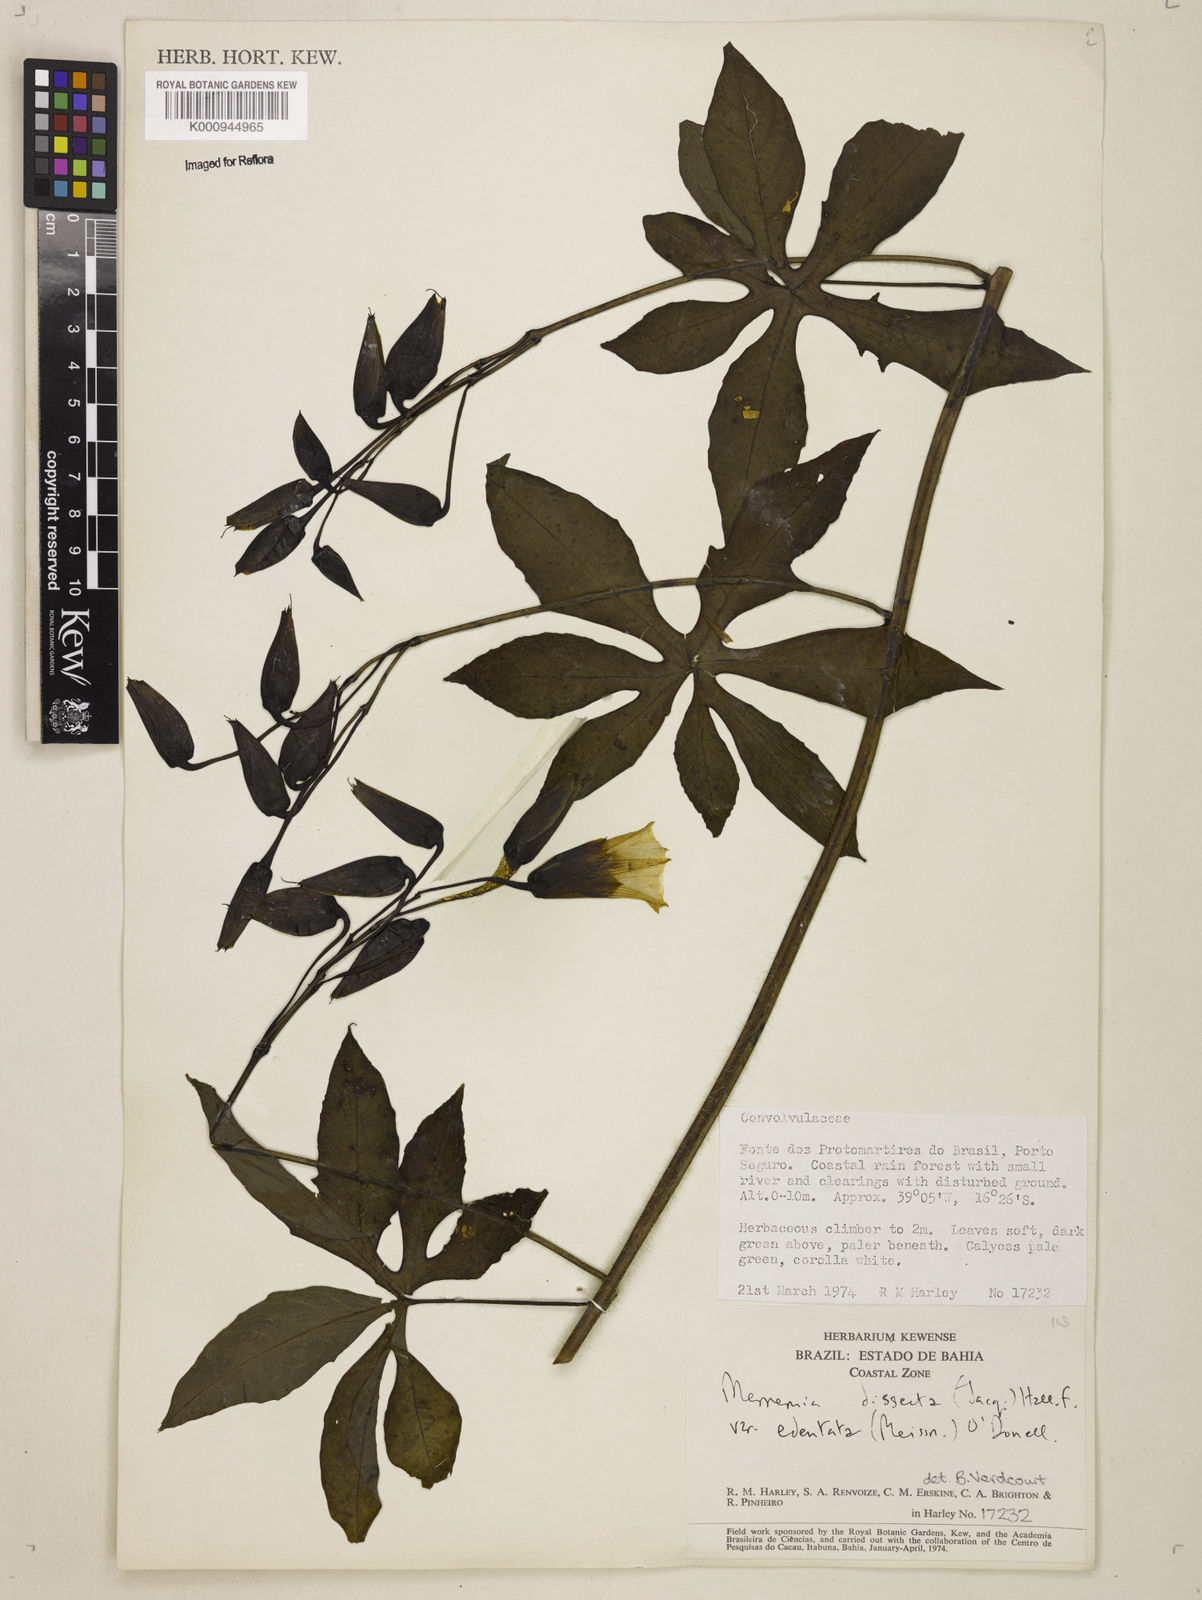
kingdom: Plantae
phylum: Tracheophyta
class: Magnoliopsida
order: Solanales
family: Convolvulaceae
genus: Distimake
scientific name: Distimake dissectus
